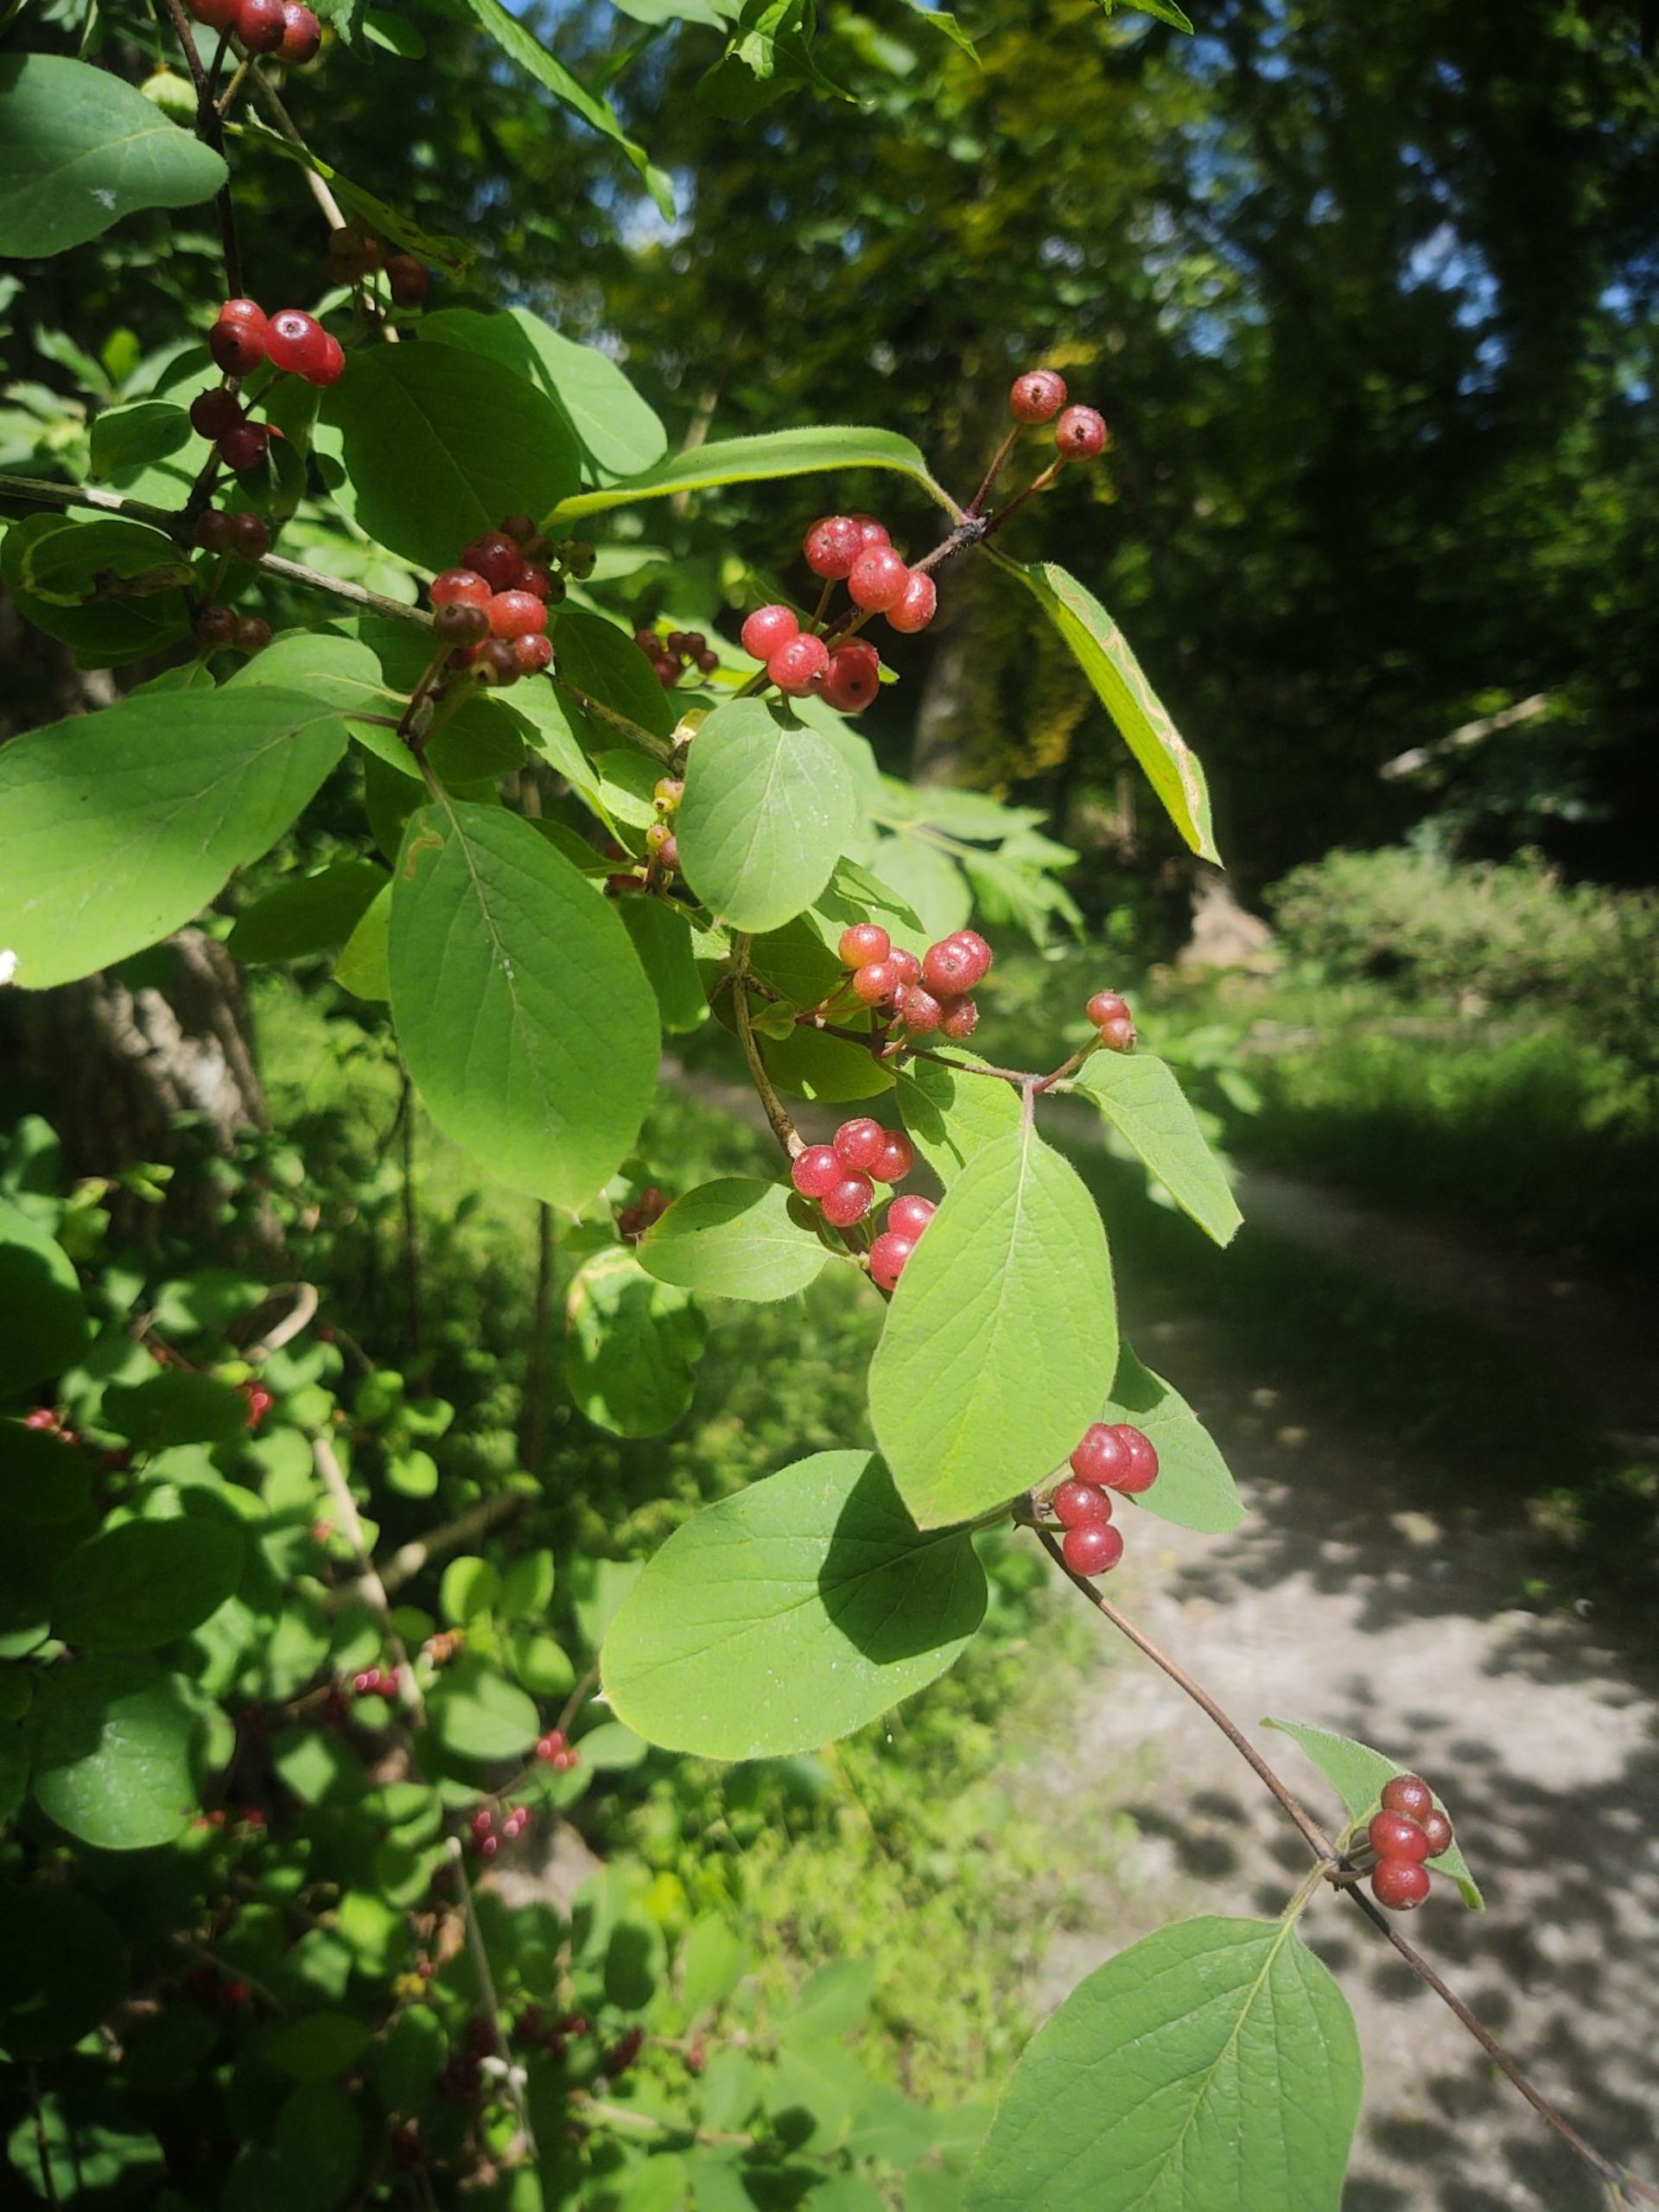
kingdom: Plantae
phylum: Tracheophyta
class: Magnoliopsida
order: Dipsacales
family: Caprifoliaceae
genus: Lonicera
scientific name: Lonicera xylosteum
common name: Dunet gedeblad
